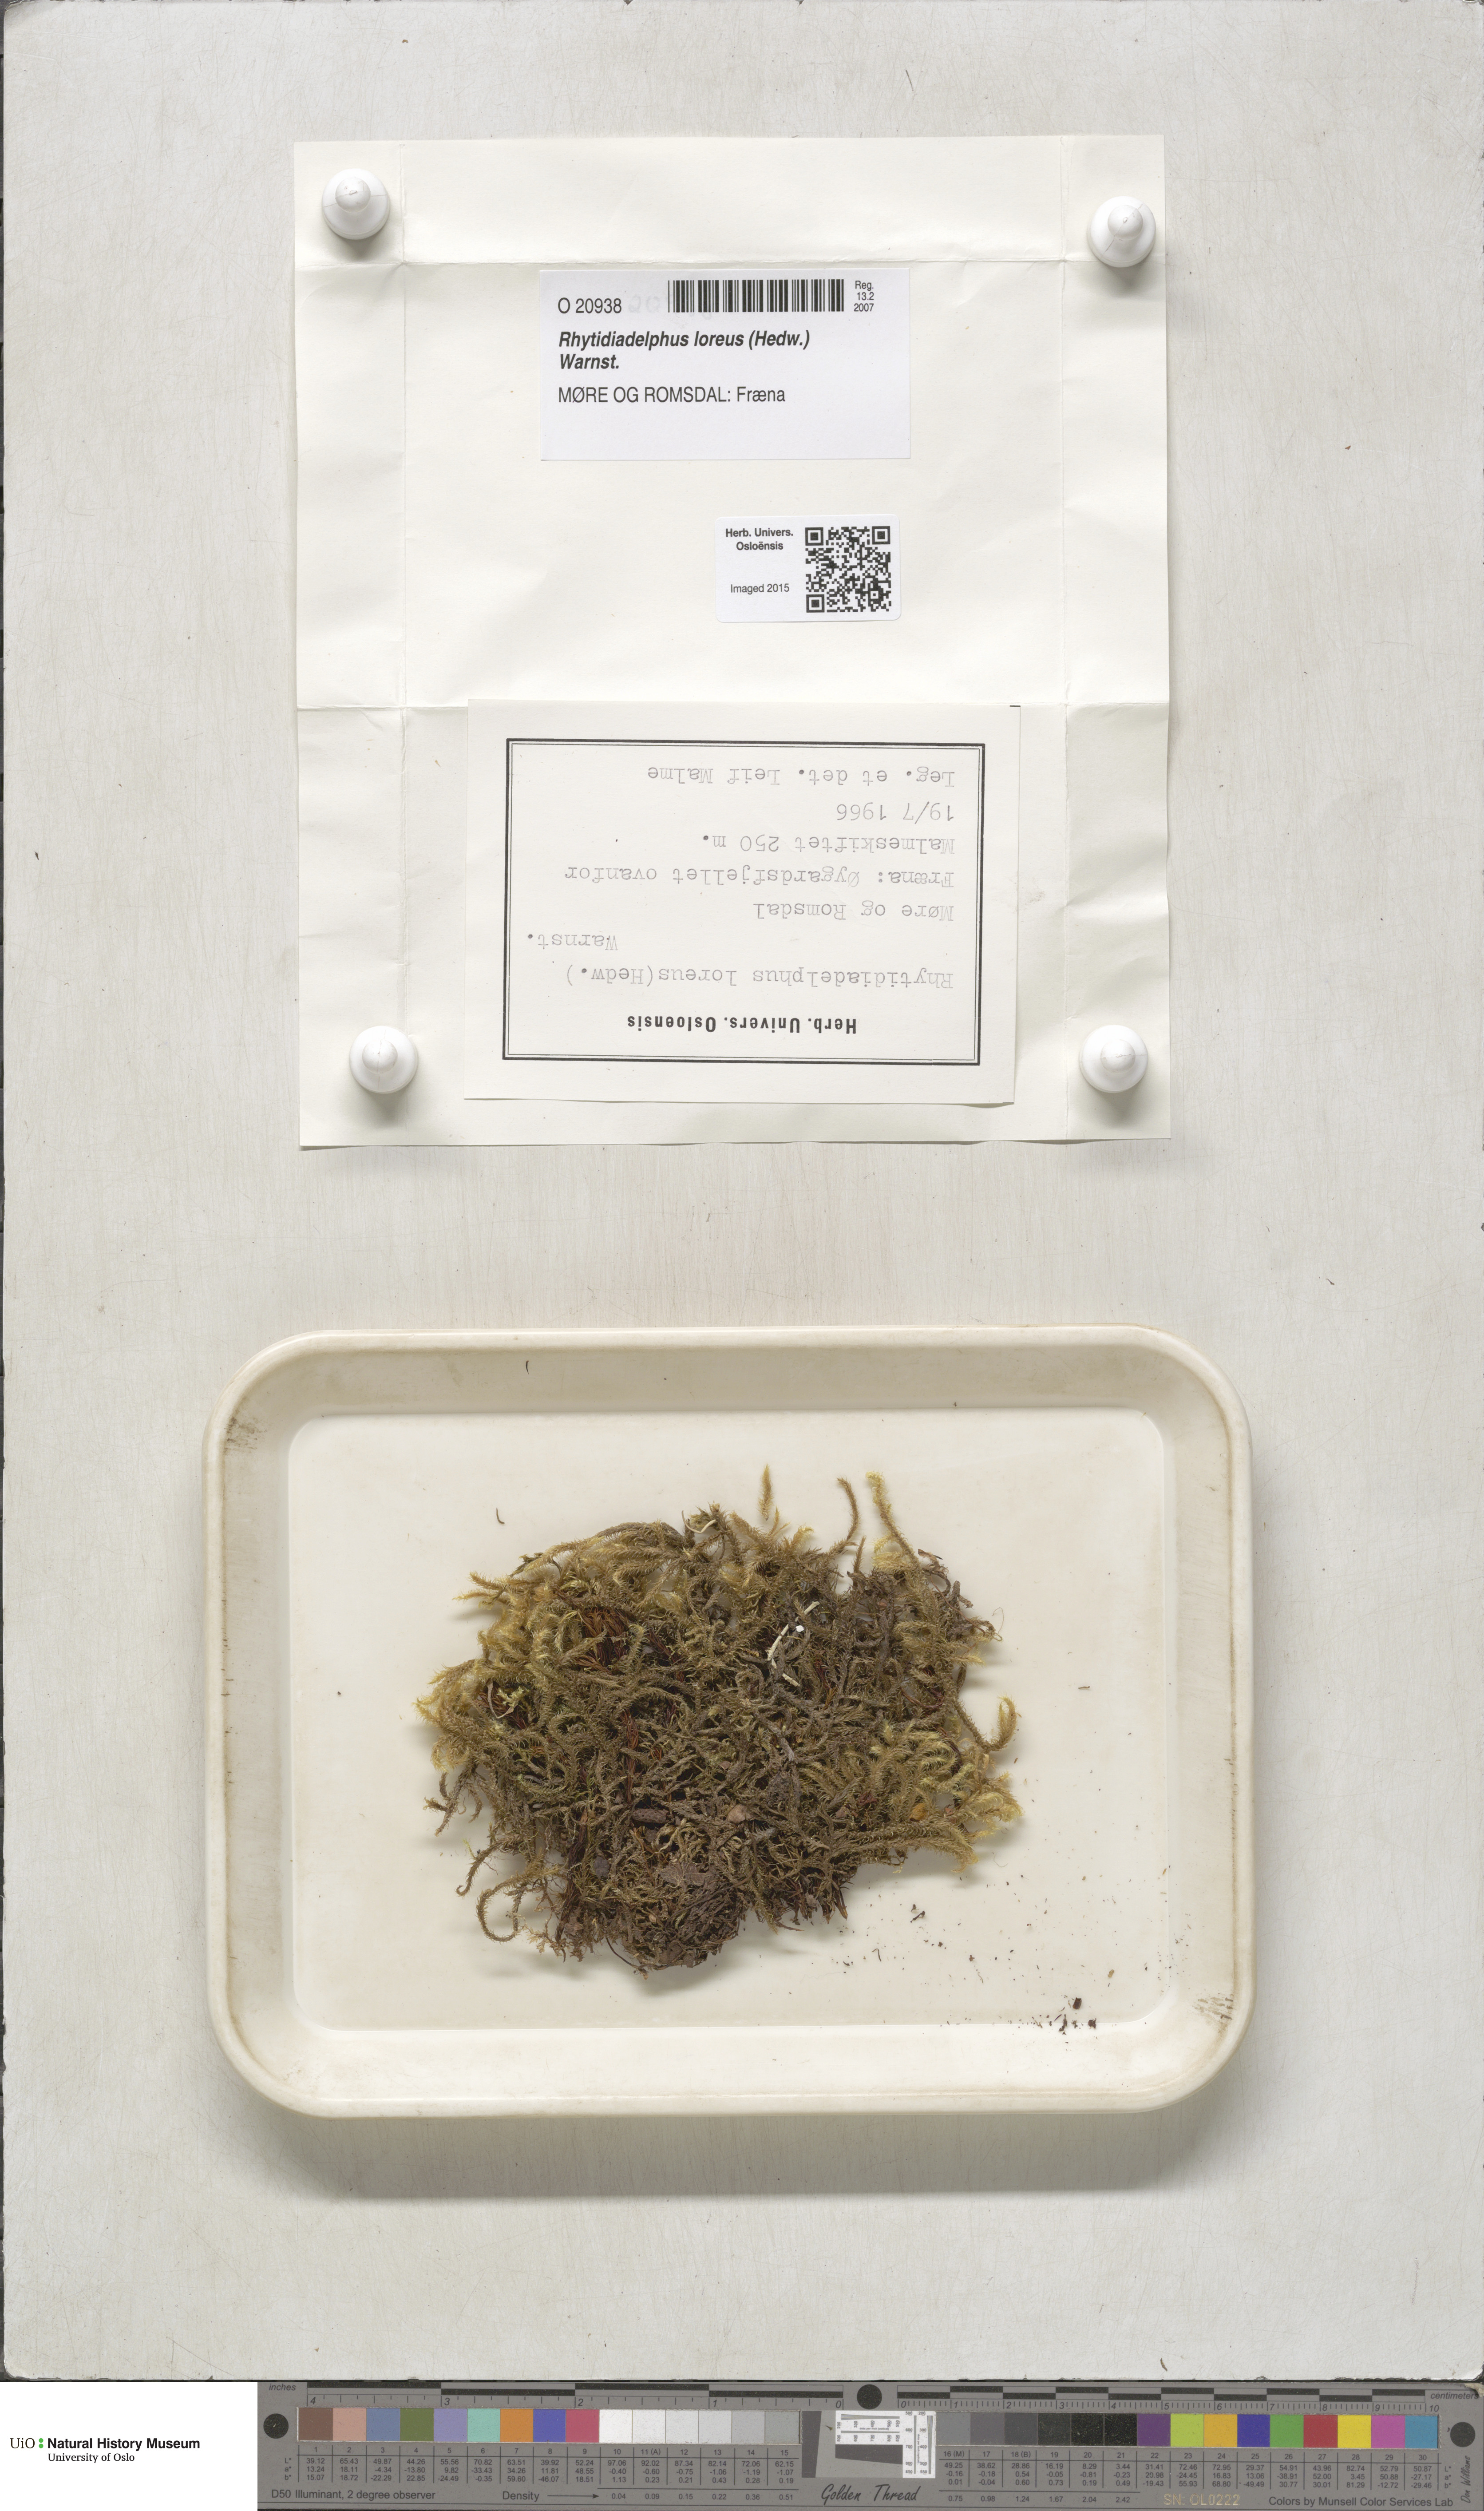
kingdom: Plantae
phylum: Bryophyta
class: Bryopsida
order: Hypnales
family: Hylocomiaceae
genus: Rhytidiadelphus
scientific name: Rhytidiadelphus loreus
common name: Lanky moss
